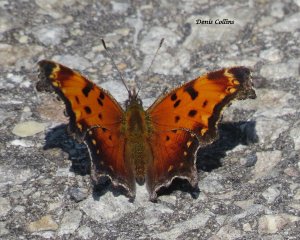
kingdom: Animalia
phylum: Arthropoda
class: Insecta
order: Lepidoptera
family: Nymphalidae
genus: Polygonia
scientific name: Polygonia progne
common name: Gray Comma
